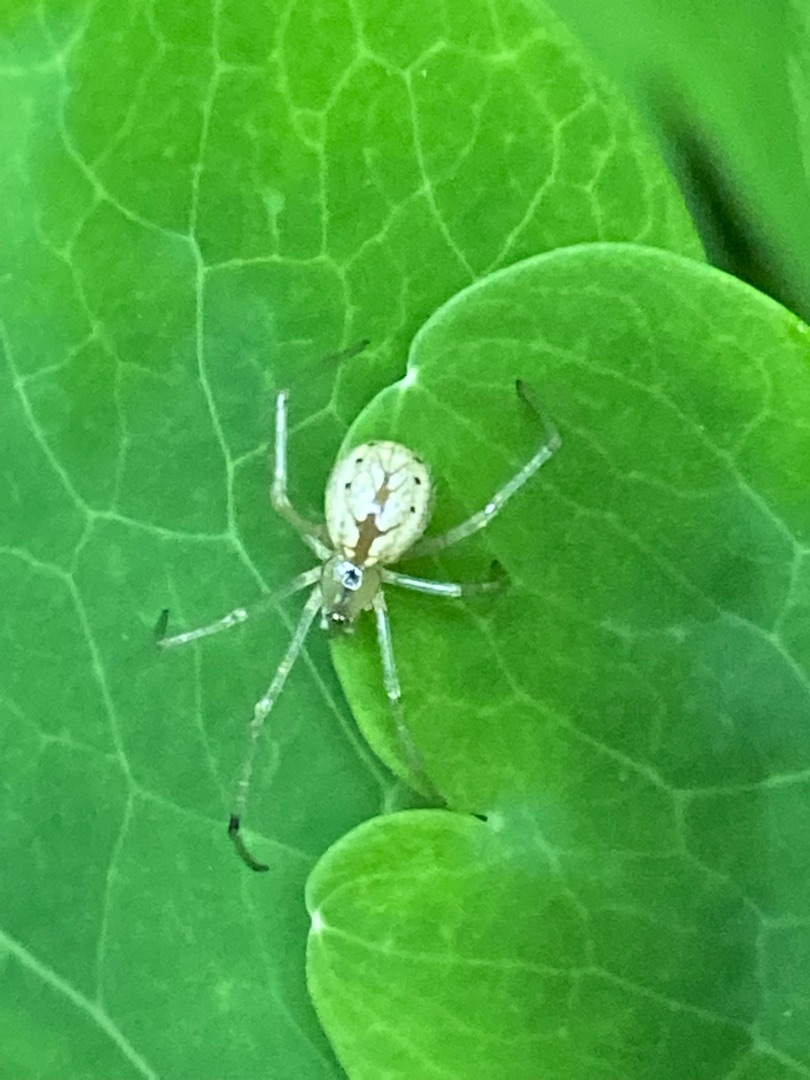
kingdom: Animalia
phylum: Arthropoda
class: Arachnida
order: Araneae
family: Theridiidae
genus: Enoplognatha
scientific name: Enoplognatha
